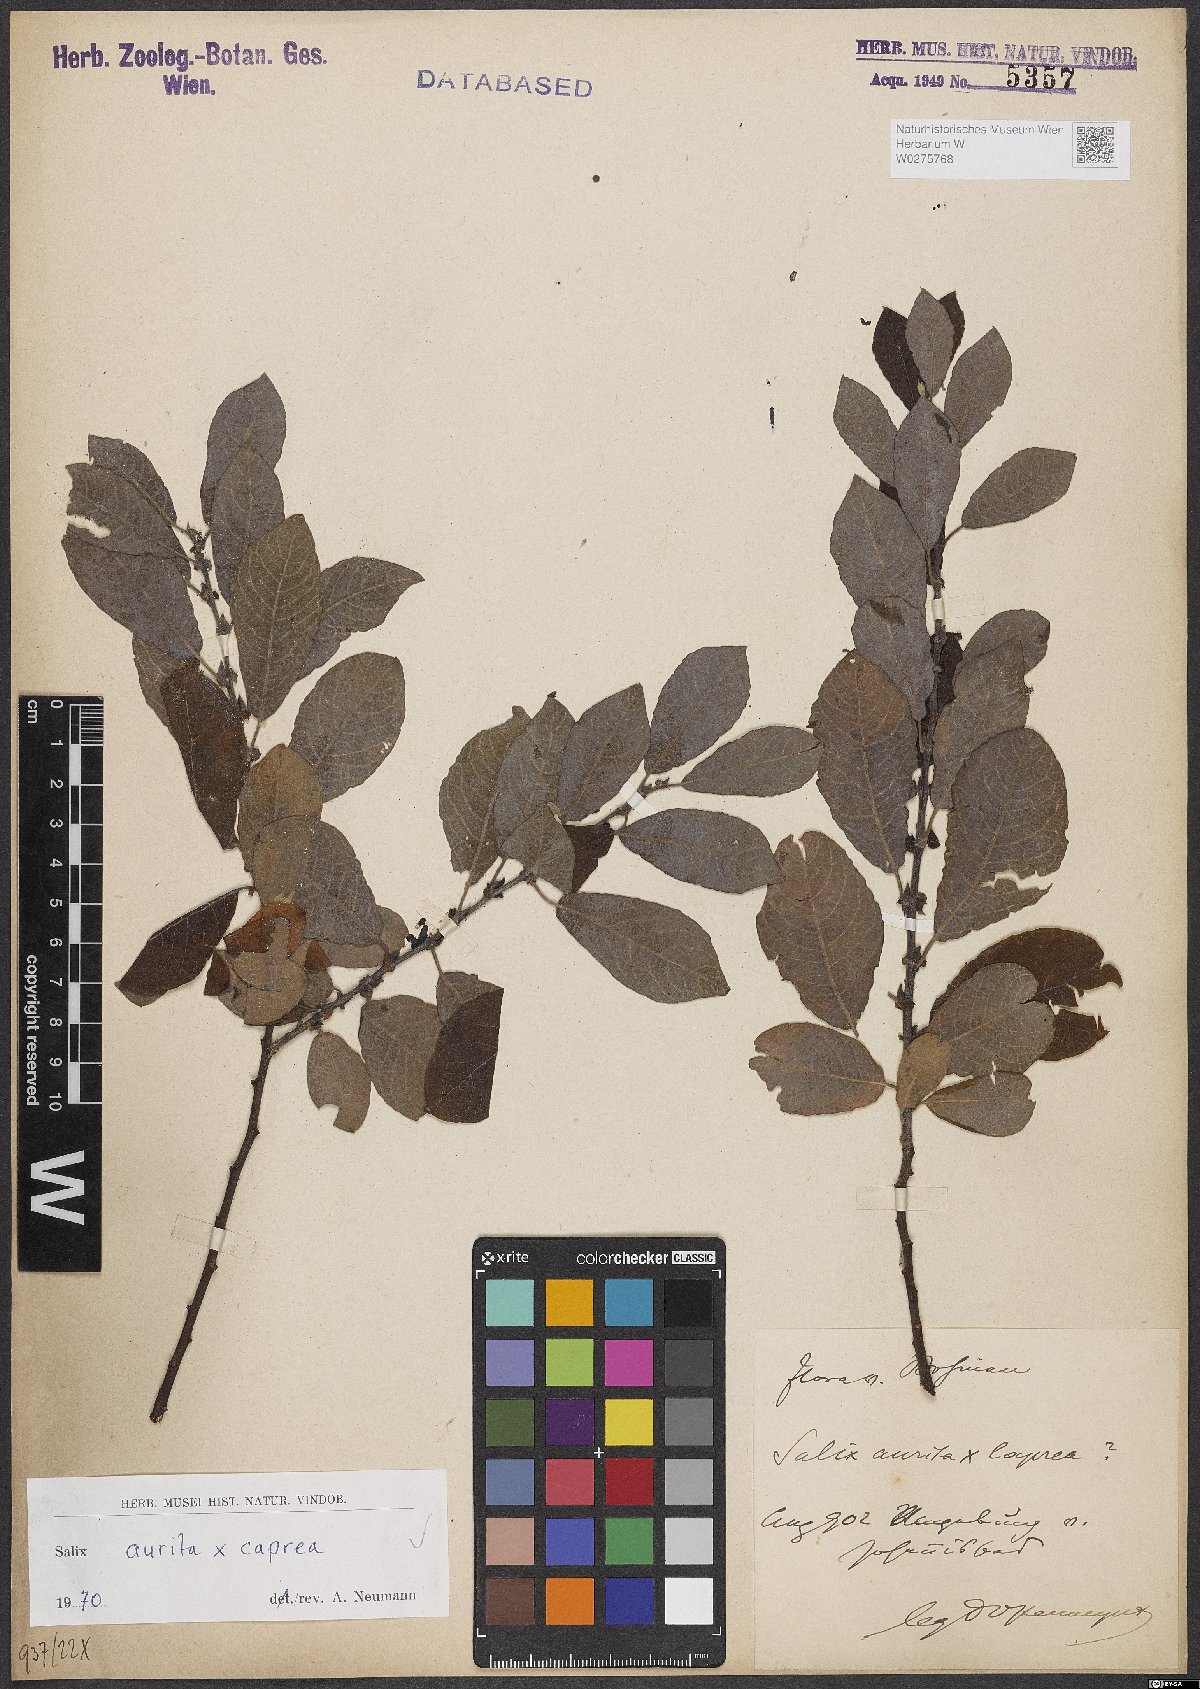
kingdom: Plantae
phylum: Tracheophyta
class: Magnoliopsida
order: Malpighiales
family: Salicaceae
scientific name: Salicaceae
